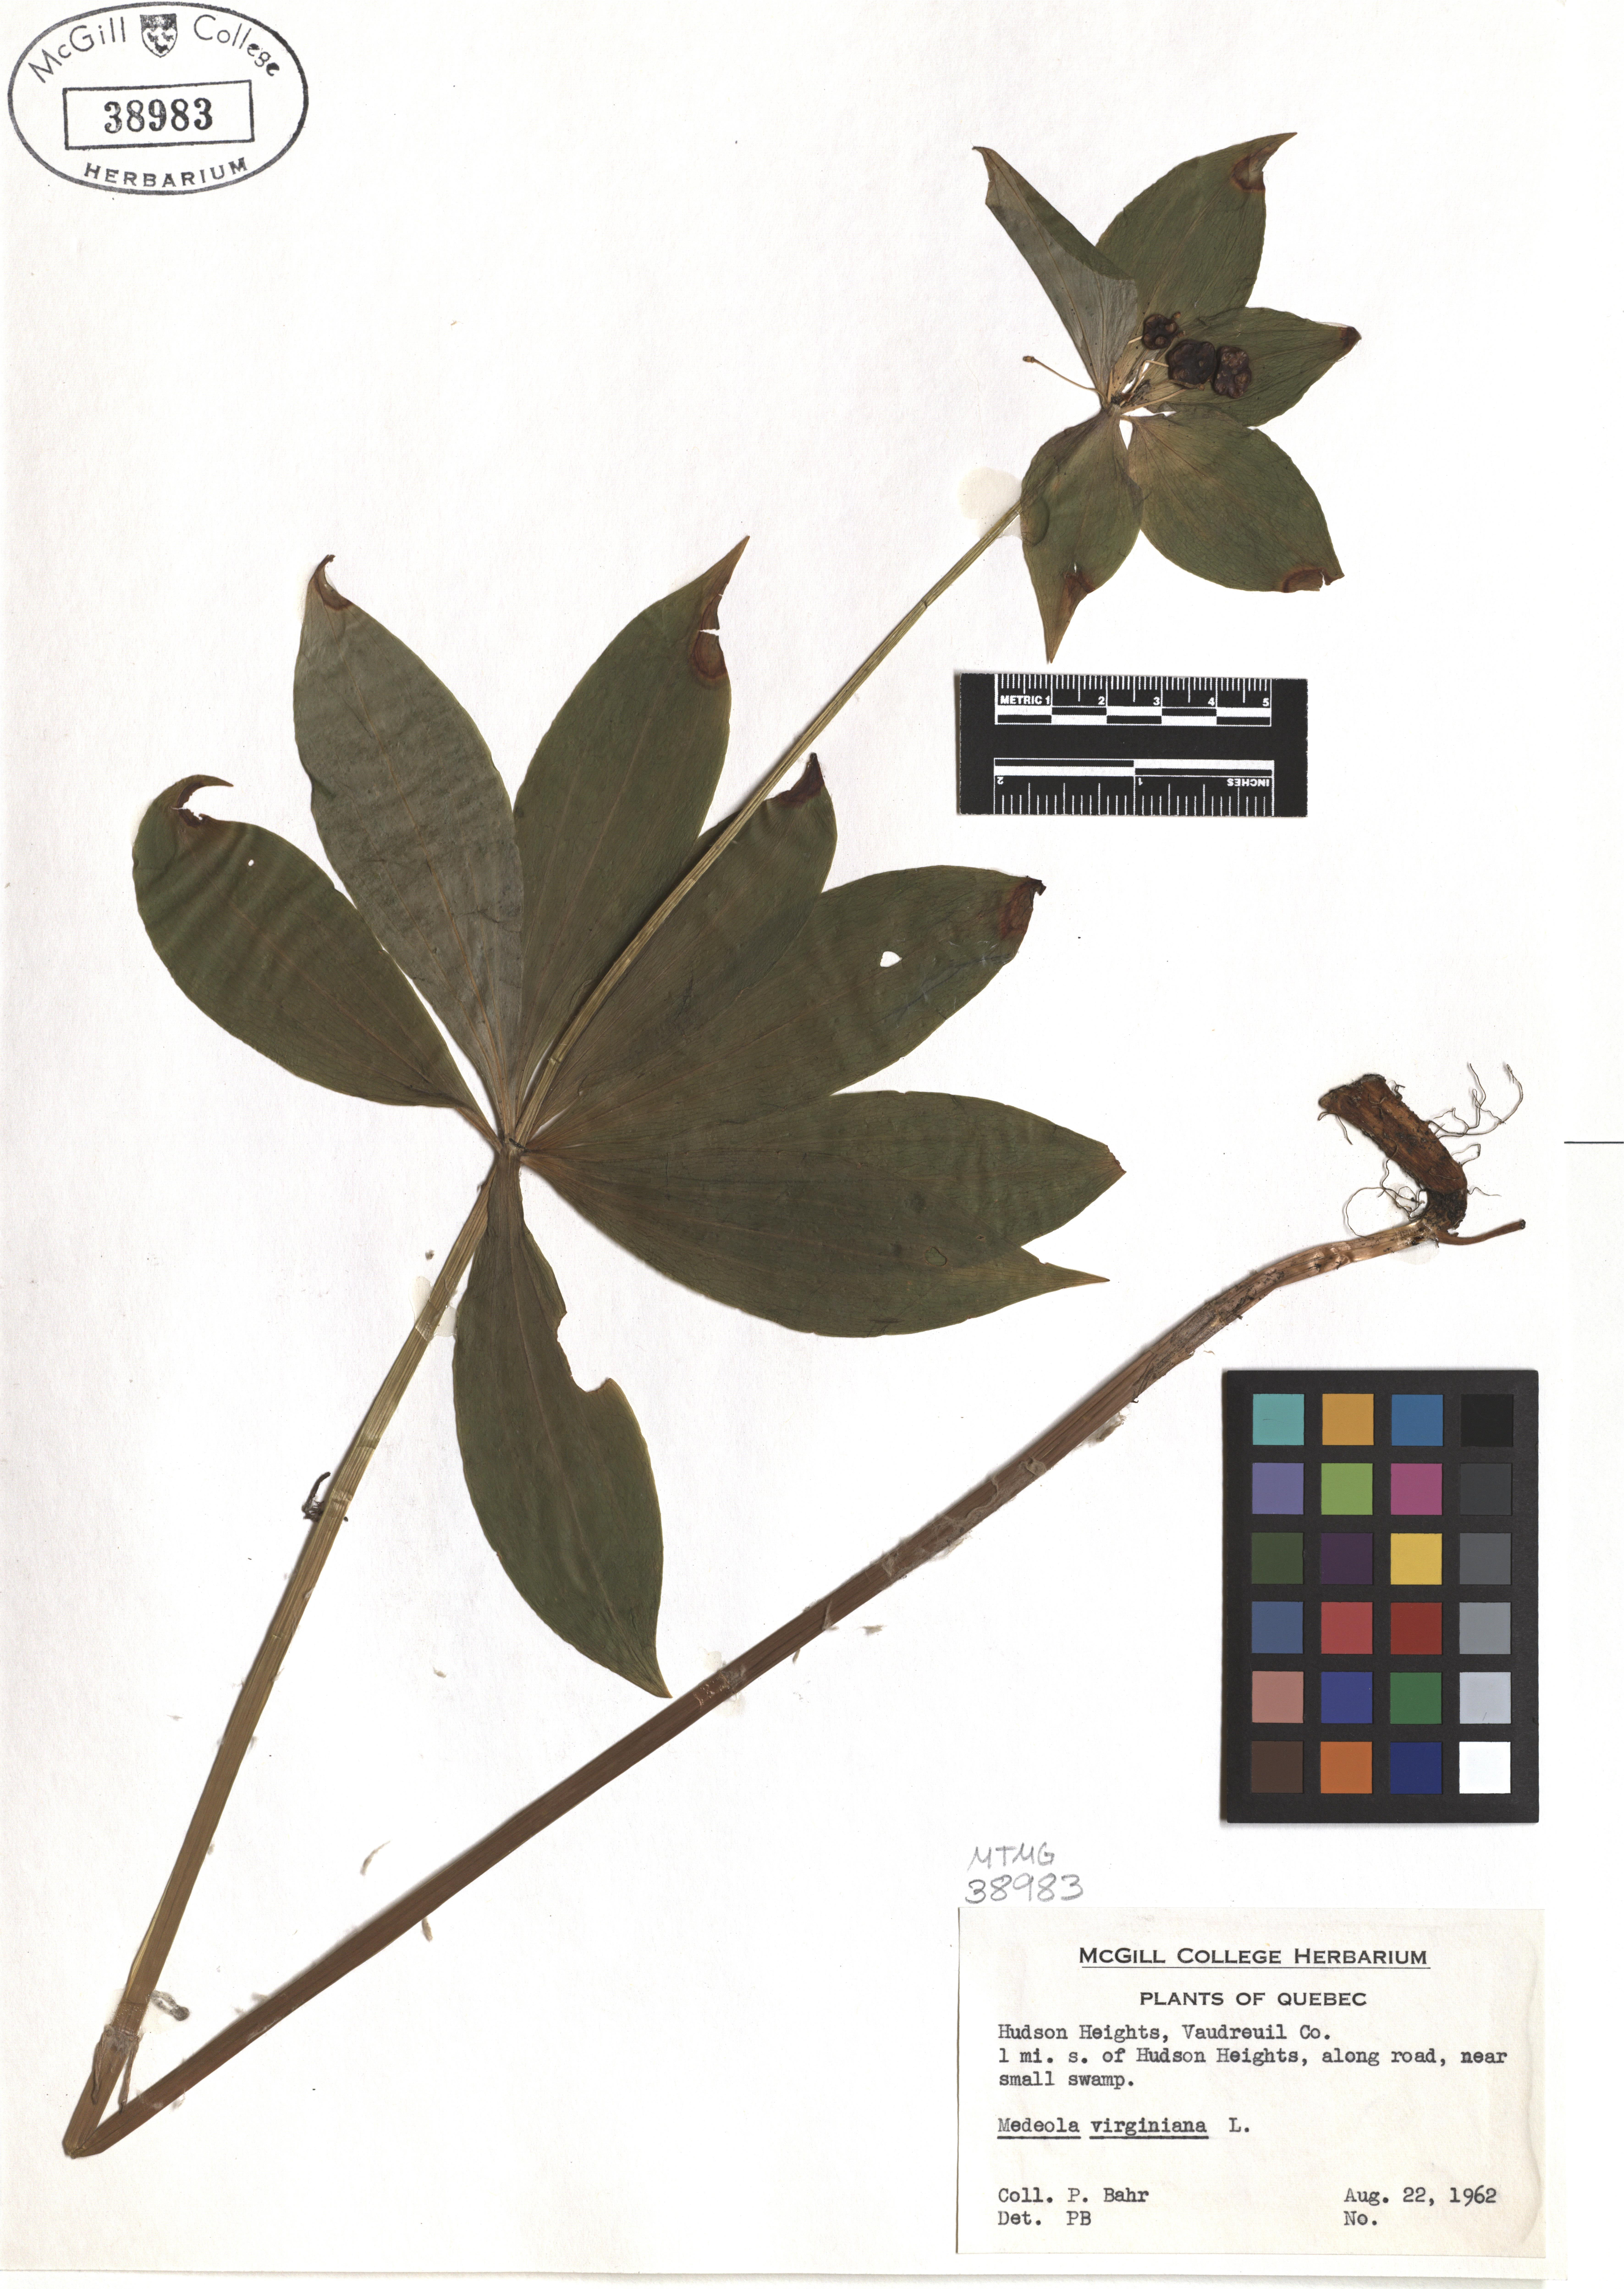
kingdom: Plantae
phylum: Tracheophyta
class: Liliopsida
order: Liliales
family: Liliaceae
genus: Medeola
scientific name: Medeola virginiana
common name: Indian cucumber-root
